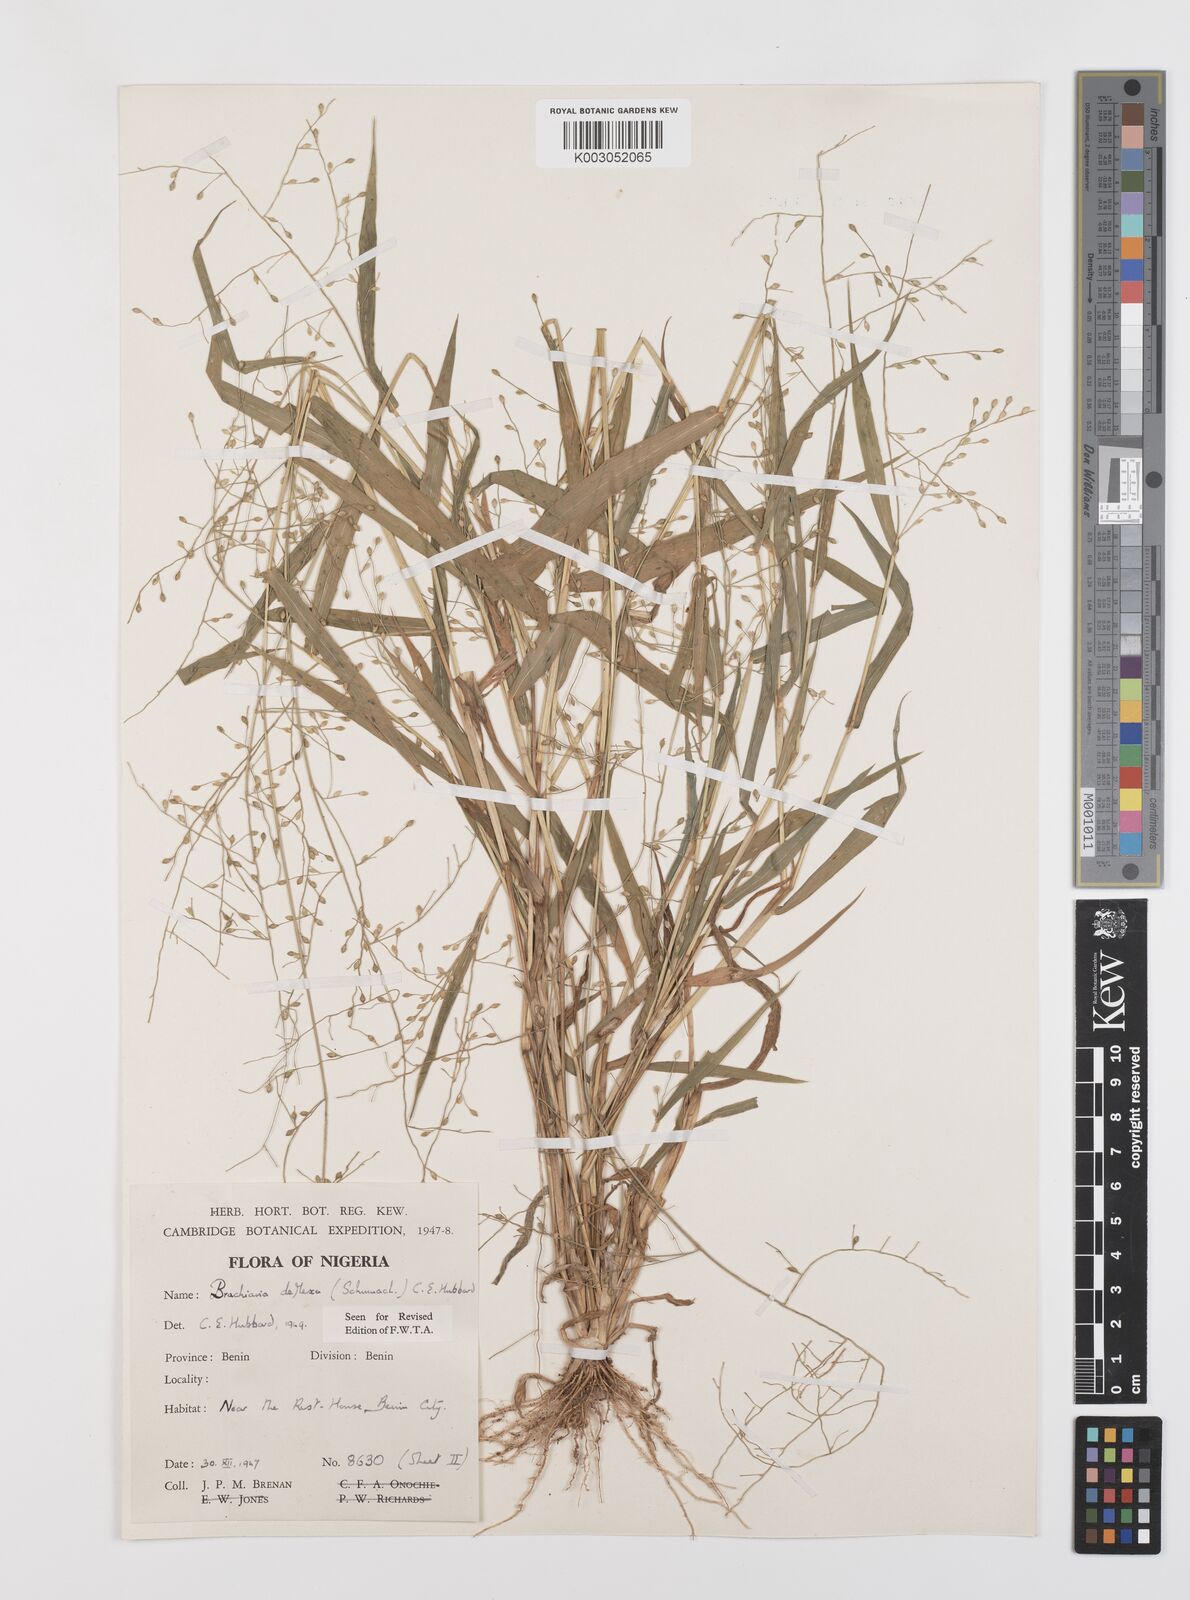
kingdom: Plantae
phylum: Tracheophyta
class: Liliopsida
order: Poales
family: Poaceae
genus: Urochloa
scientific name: Urochloa deflexa
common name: Guinea millet
